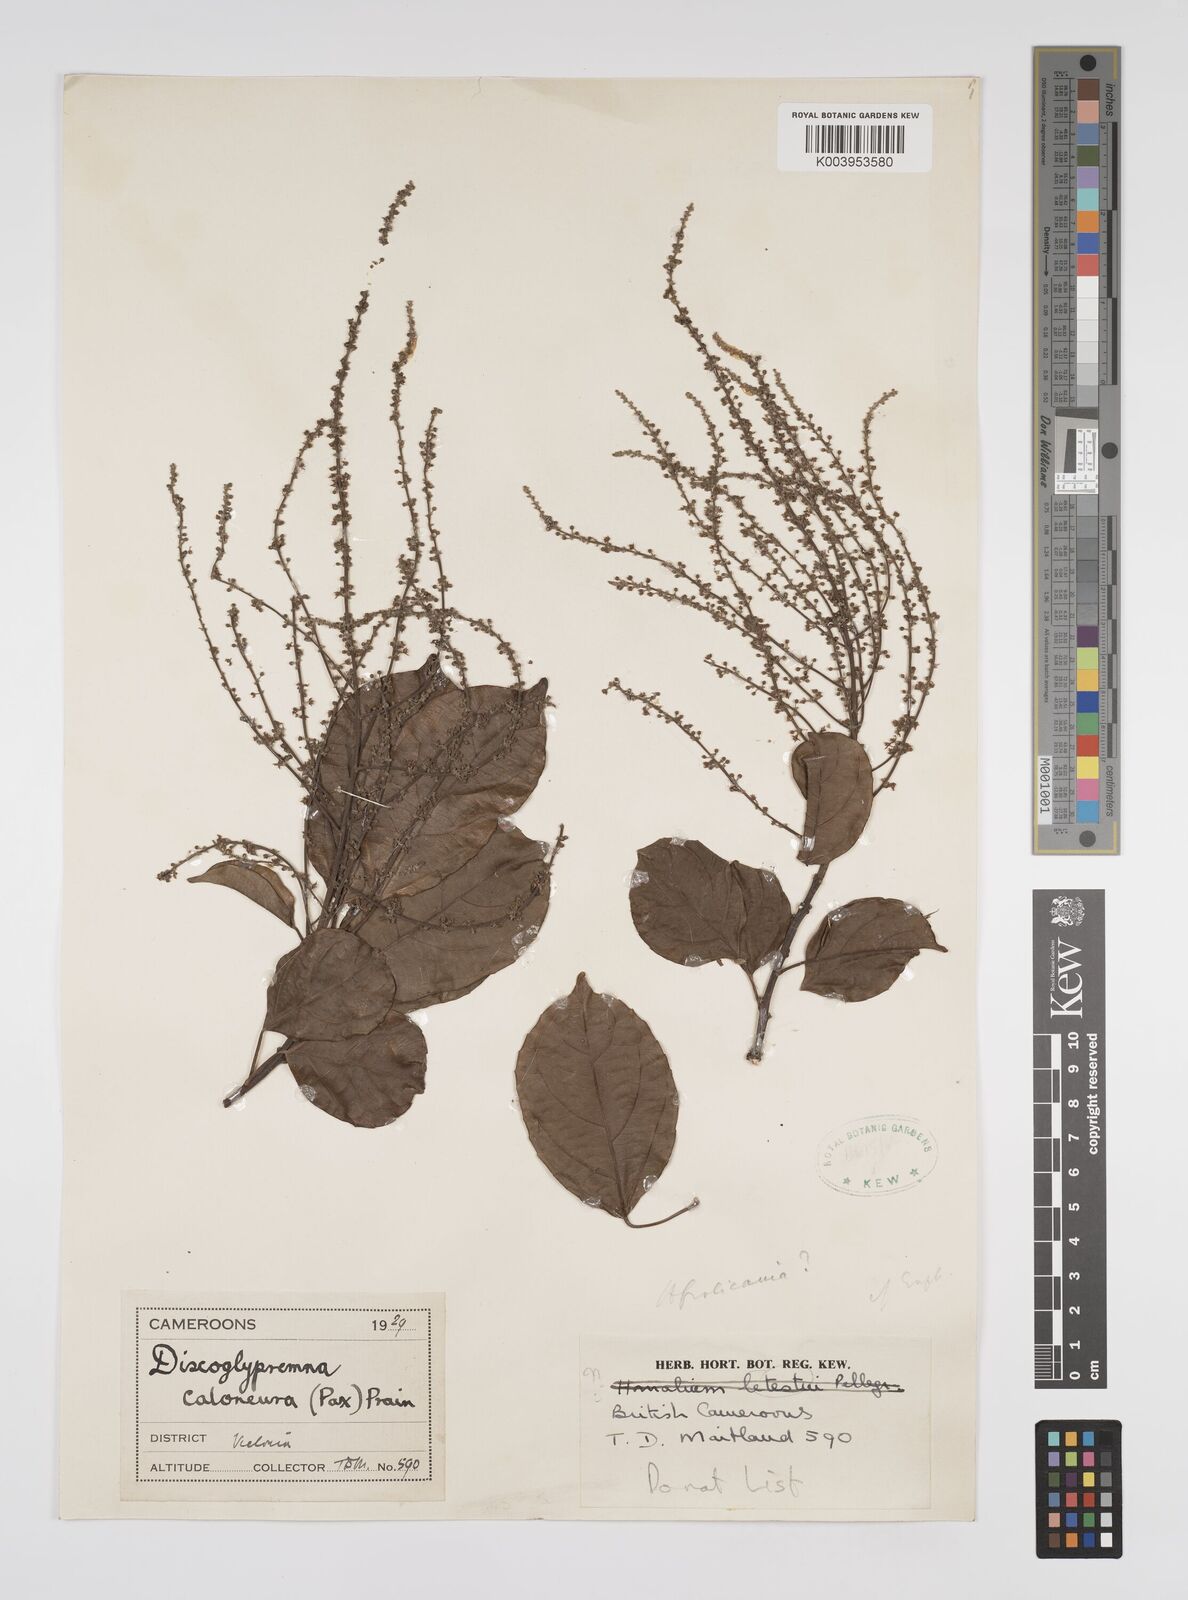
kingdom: Plantae
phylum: Tracheophyta
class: Magnoliopsida
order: Malpighiales
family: Euphorbiaceae
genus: Discoglypremna
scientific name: Discoglypremna caloneura
